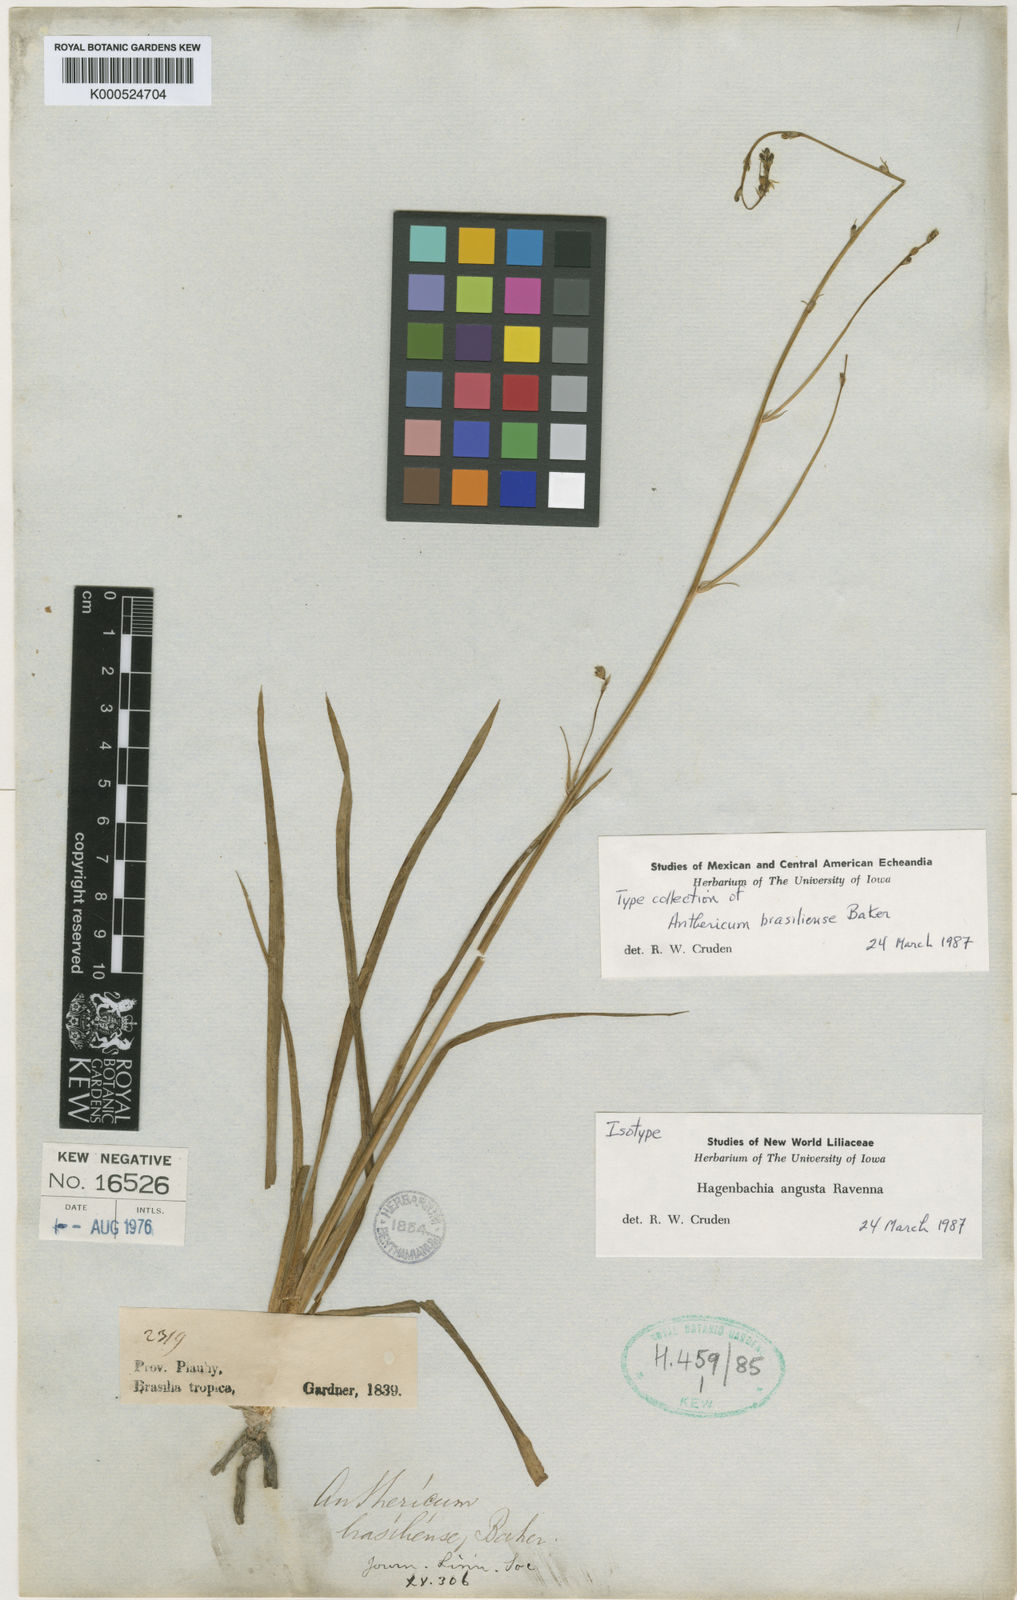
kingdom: Plantae
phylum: Tracheophyta
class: Liliopsida
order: Asparagales
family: Asparagaceae
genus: Hagenbachia
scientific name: Hagenbachia matogrossensis
